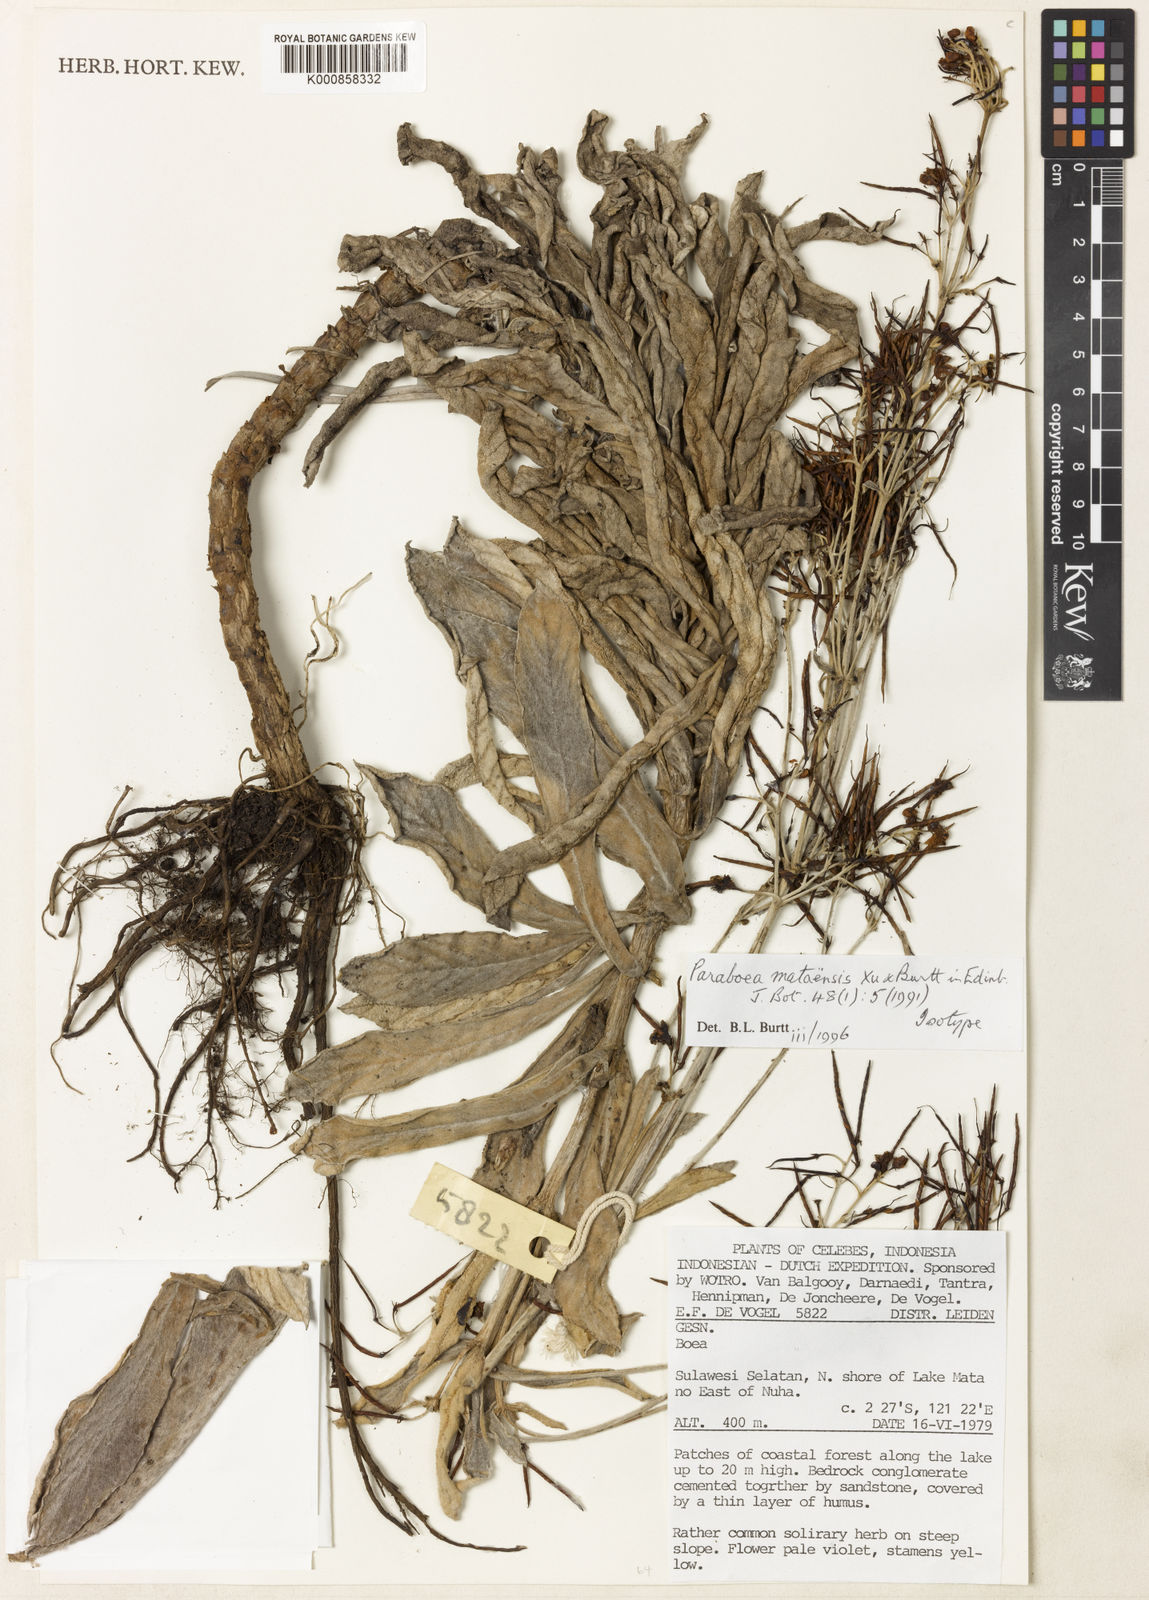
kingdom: Plantae
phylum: Tracheophyta
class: Magnoliopsida
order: Lamiales
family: Gesneriaceae
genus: Paraboea
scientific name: Paraboea mataensis
